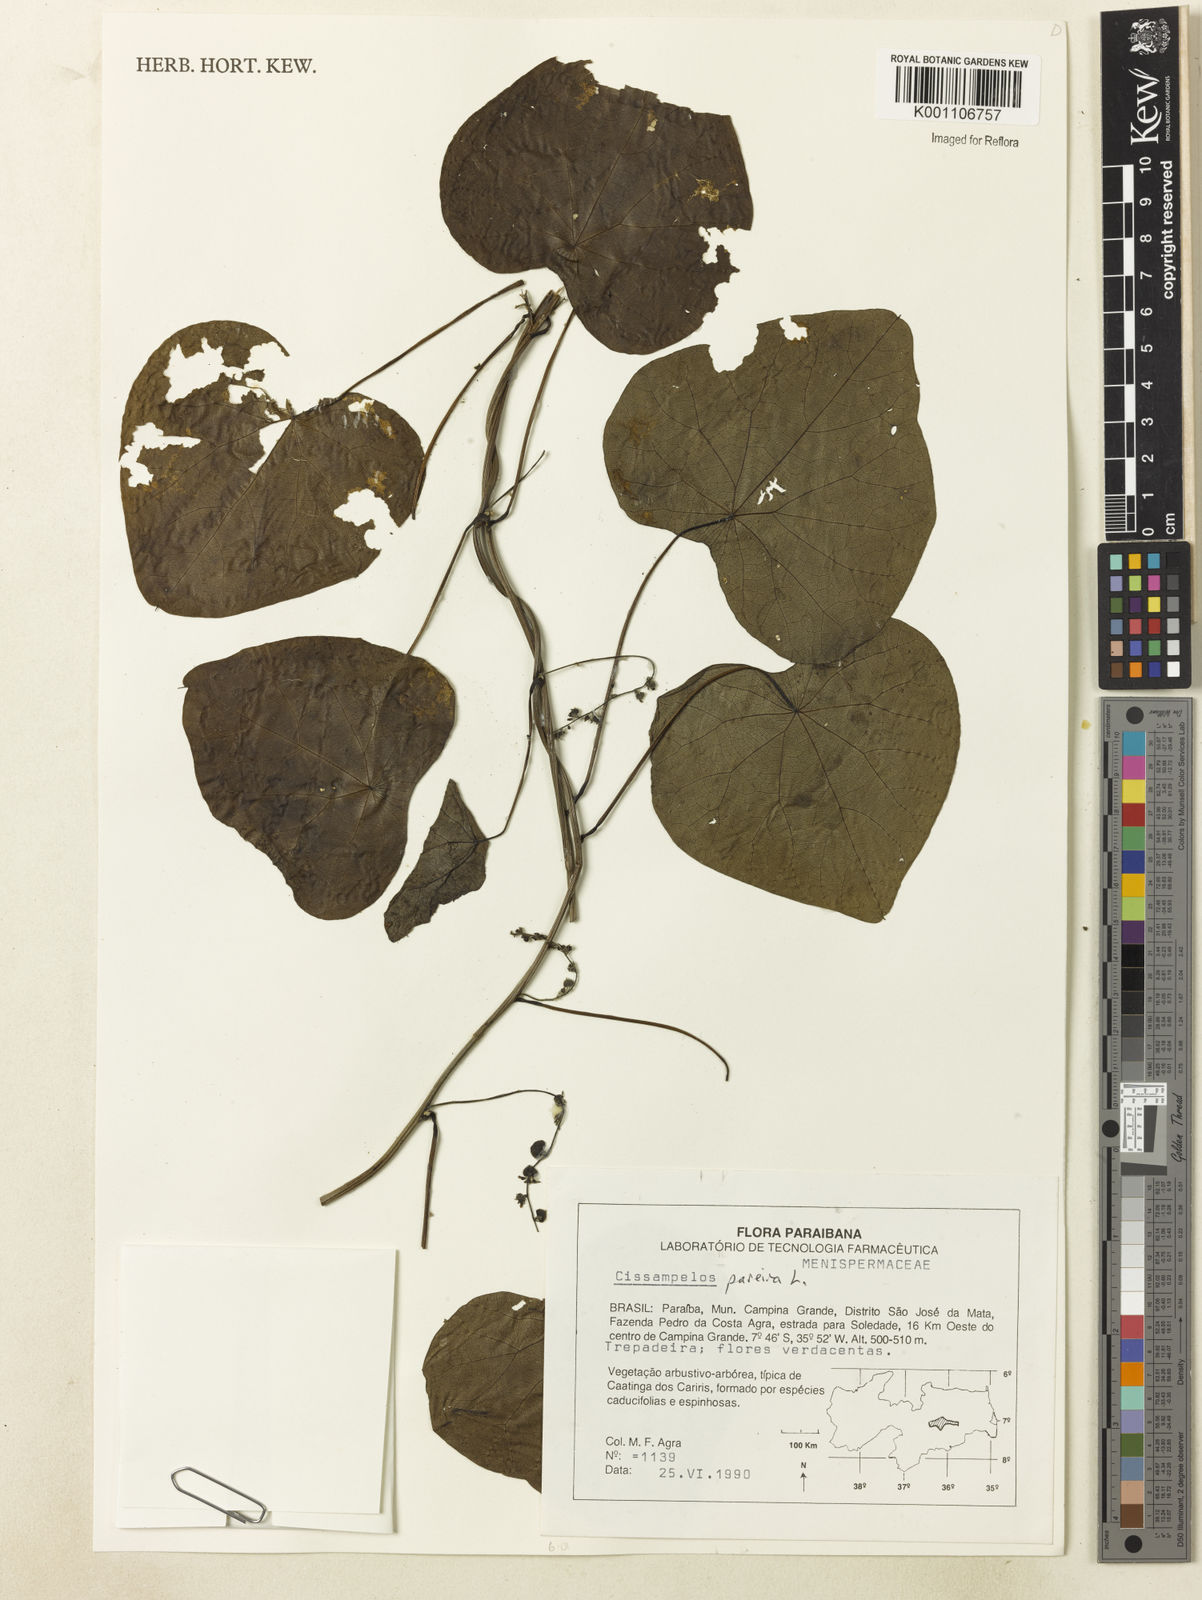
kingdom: Plantae
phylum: Tracheophyta
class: Magnoliopsida
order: Ranunculales
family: Menispermaceae
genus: Cissampelos
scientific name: Cissampelos pareira
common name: Velvetleaf
